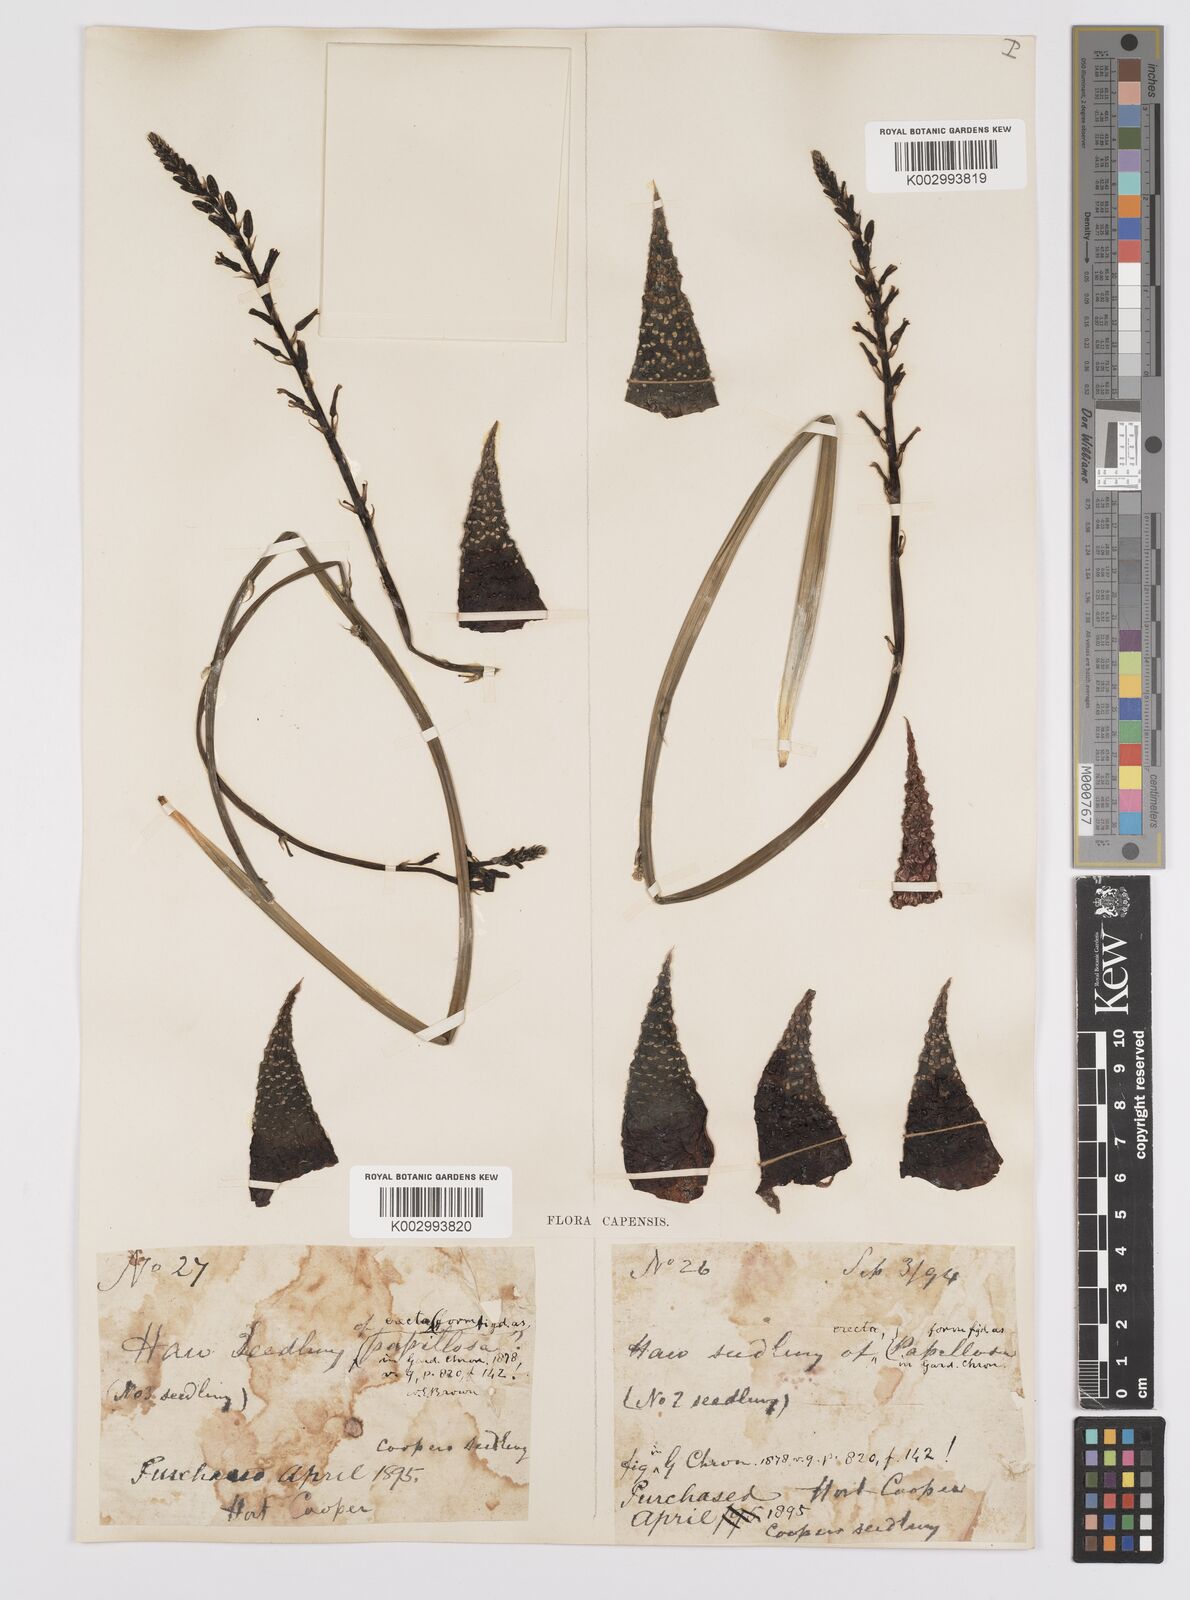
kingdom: Plantae
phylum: Tracheophyta
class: Liliopsida
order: Asparagales
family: Asphodelaceae
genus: Tulista
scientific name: Tulista pumila
